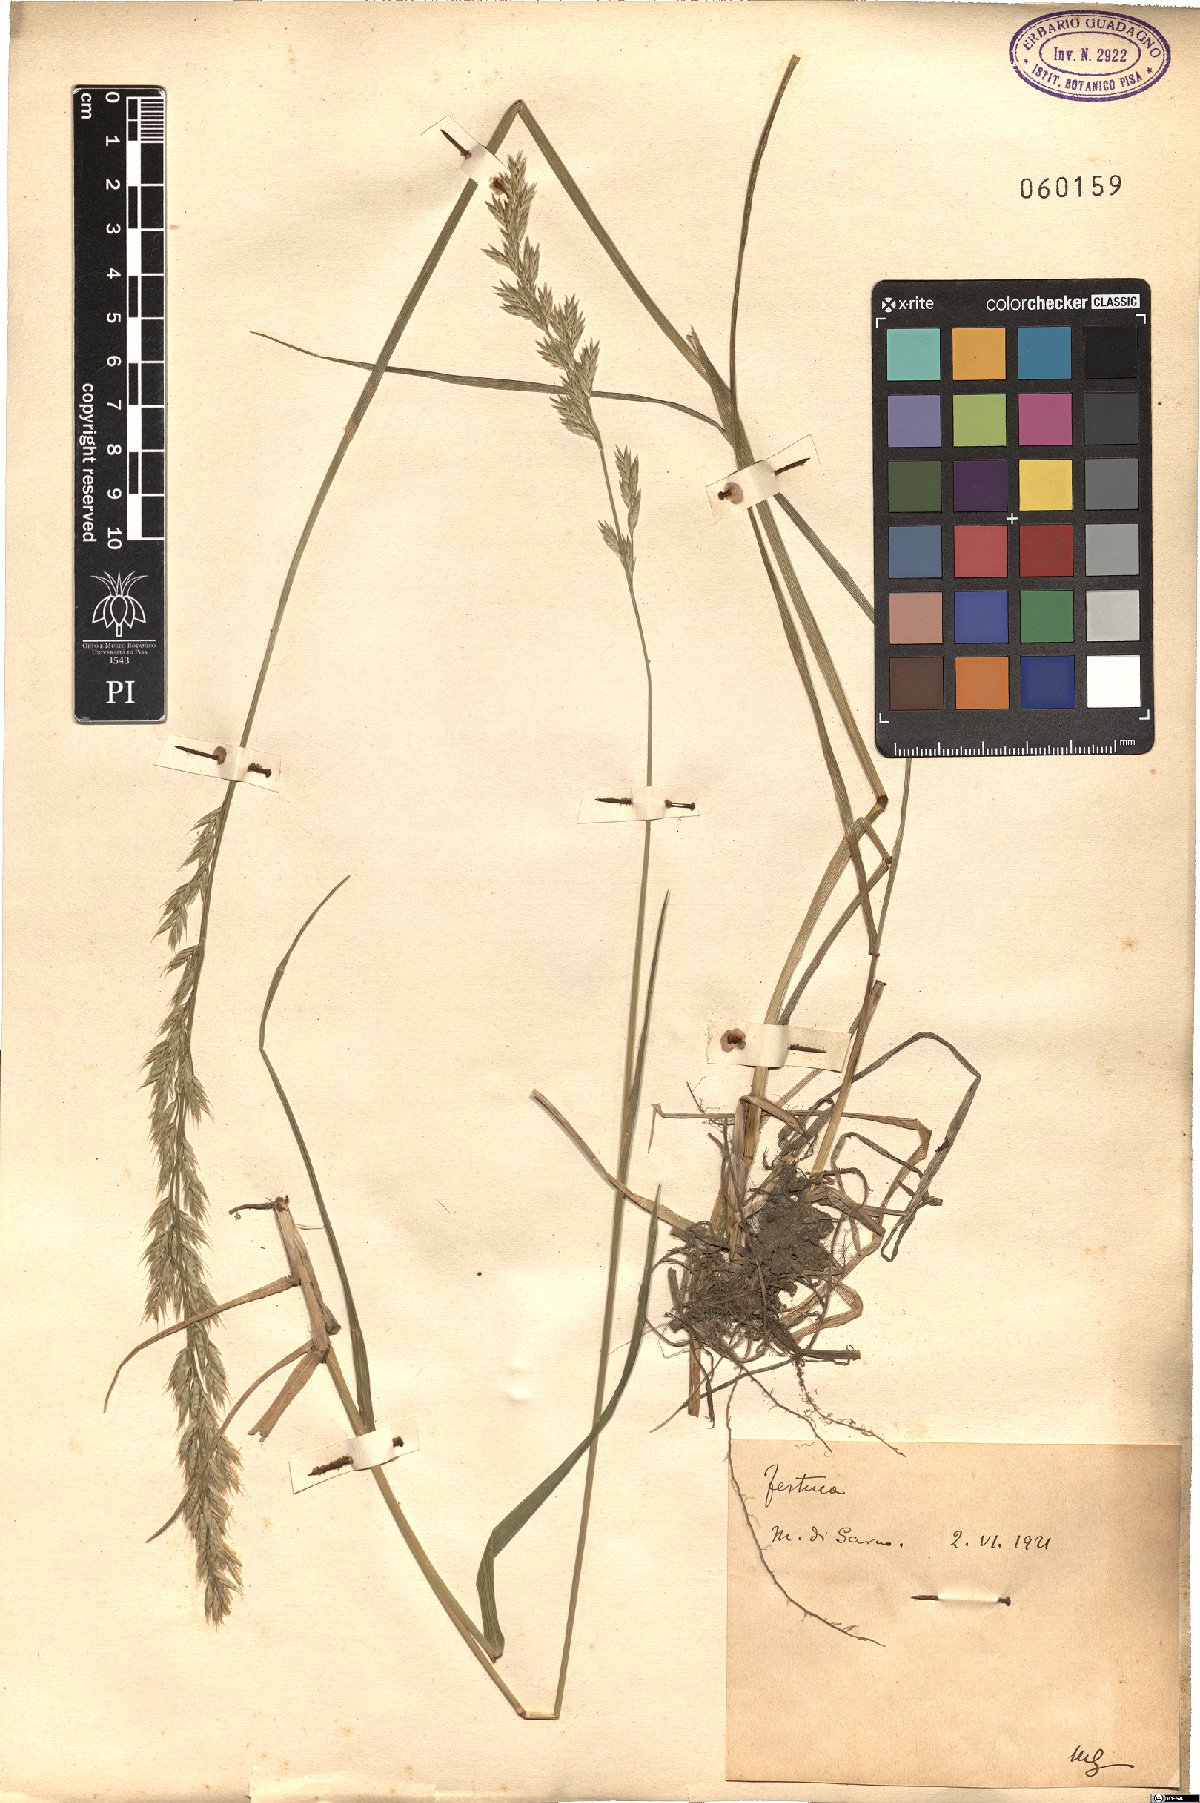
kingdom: Plantae
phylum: Tracheophyta
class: Liliopsida
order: Poales
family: Poaceae
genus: Festuca
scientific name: Festuca
